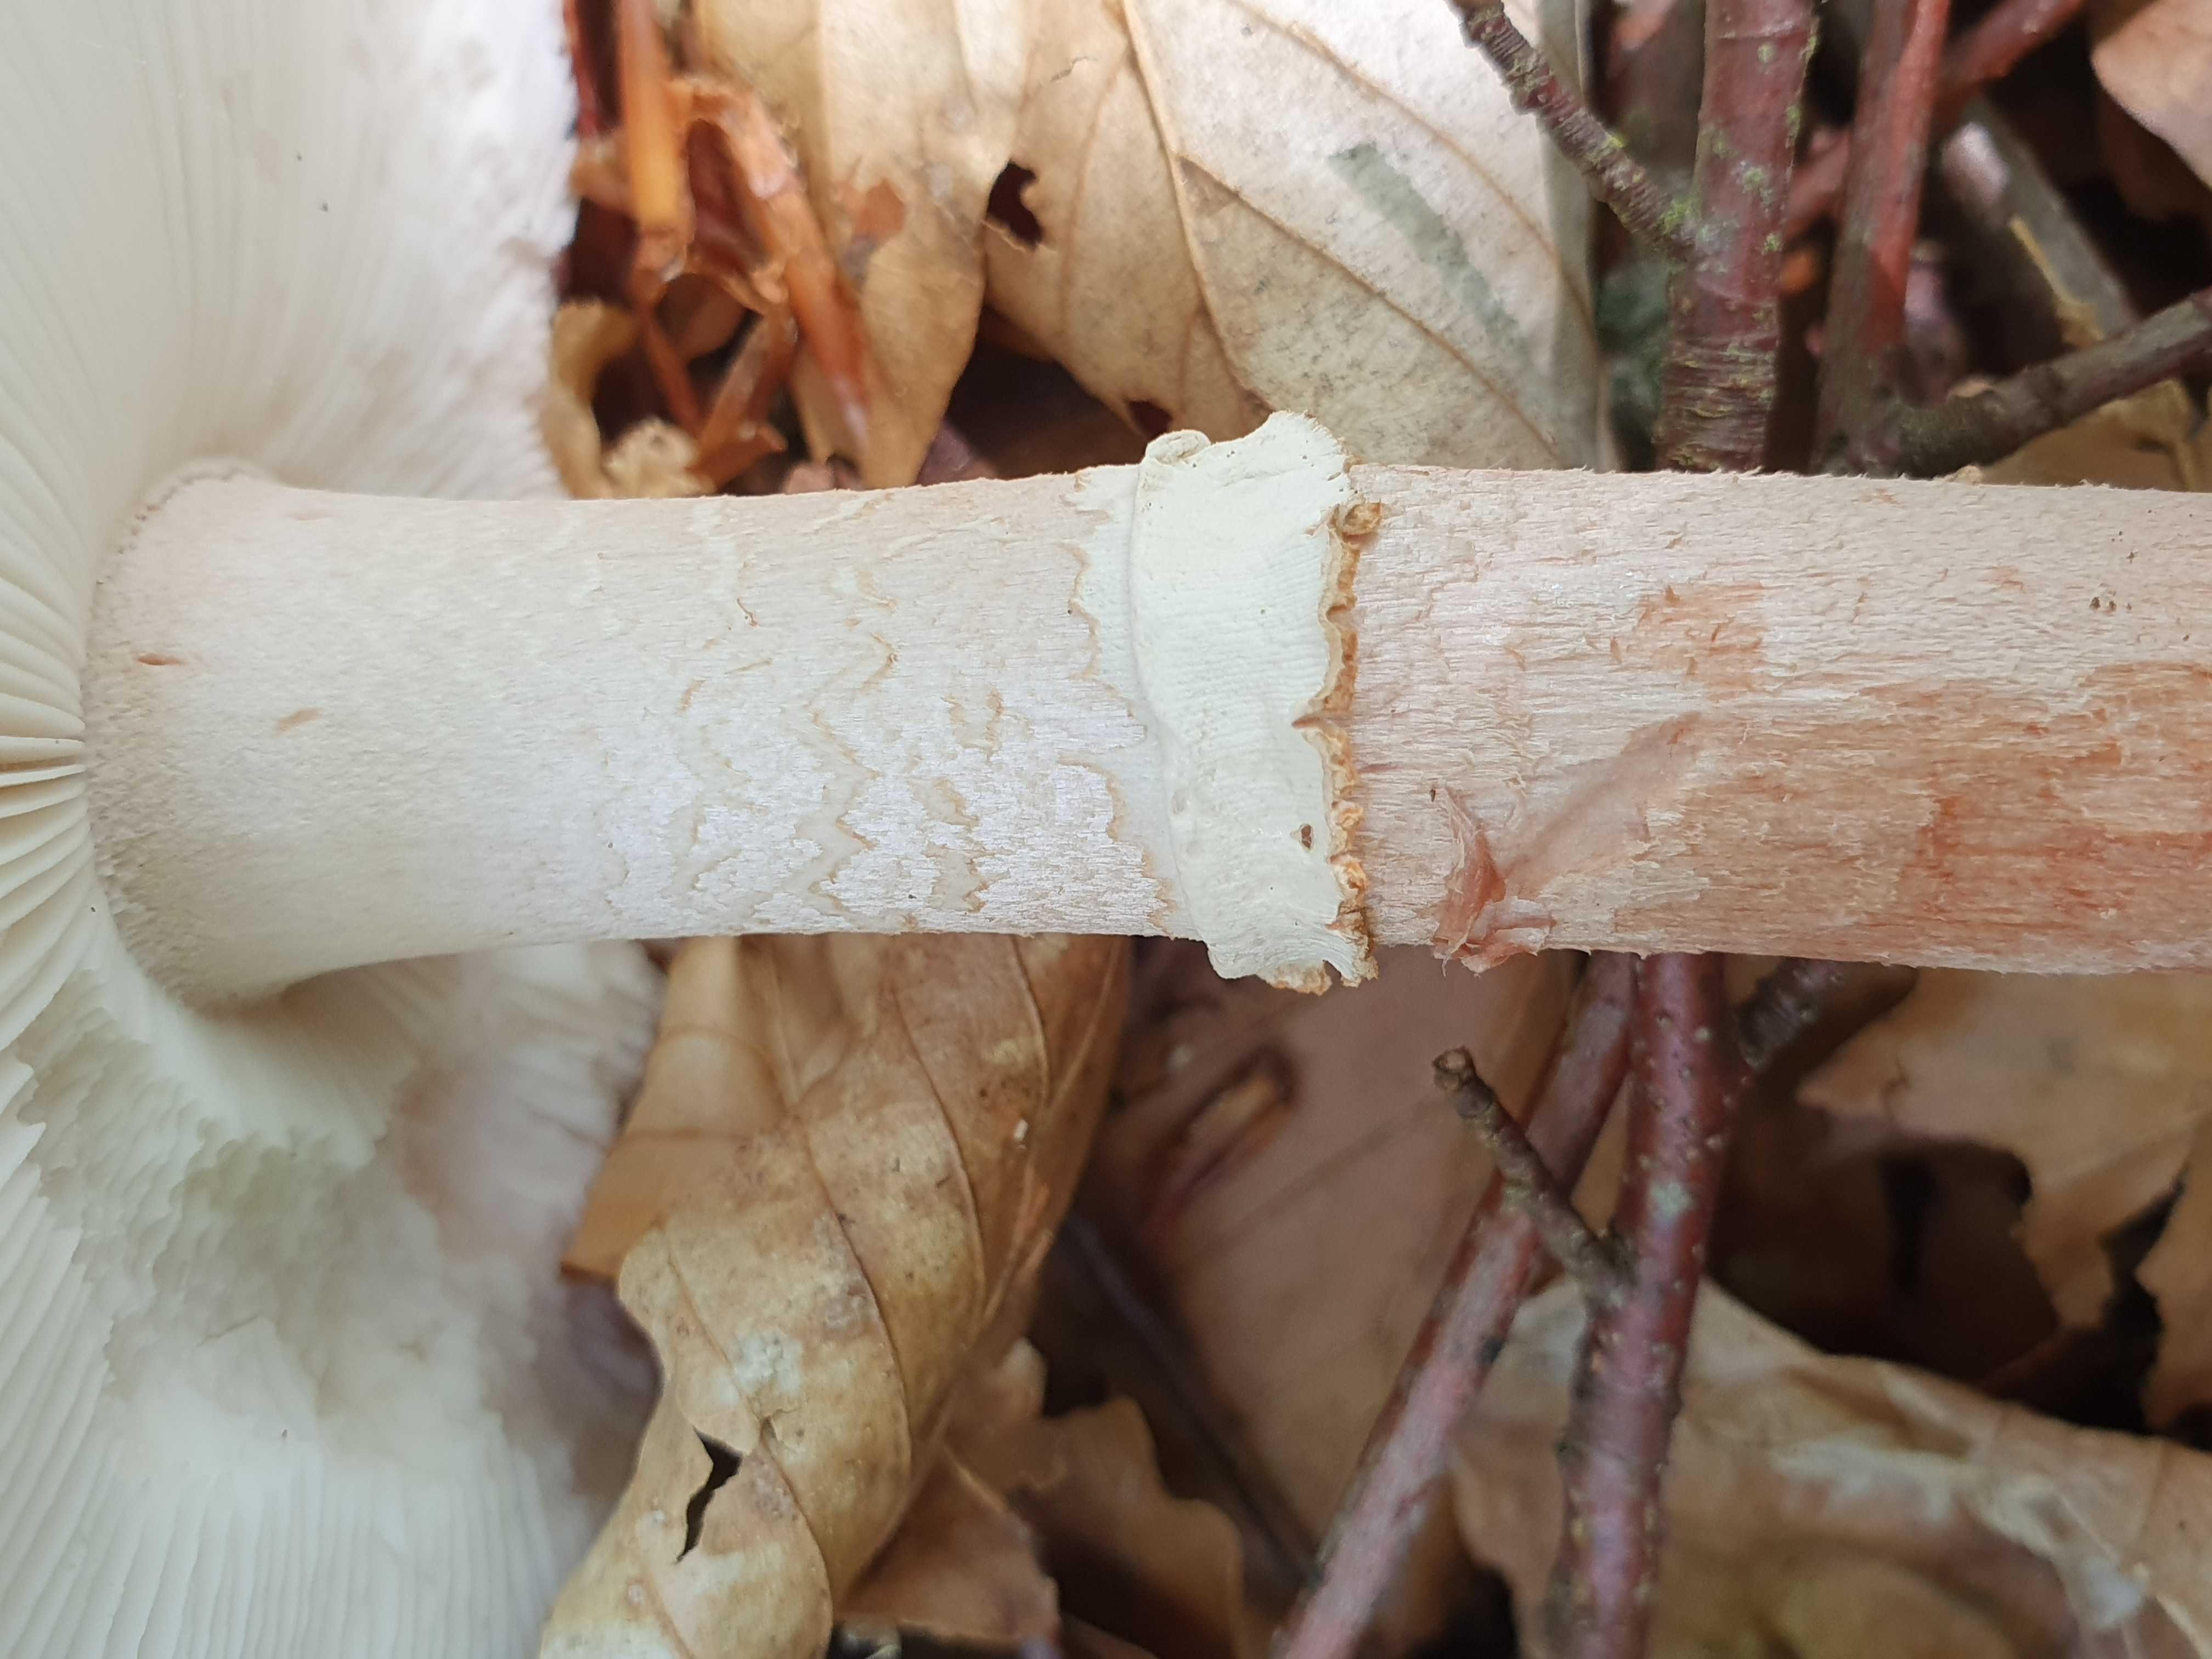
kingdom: Fungi
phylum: Basidiomycota
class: Agaricomycetes
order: Agaricales
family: Amanitaceae
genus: Amanita
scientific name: Amanita rubescens
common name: rødmende fluesvamp
